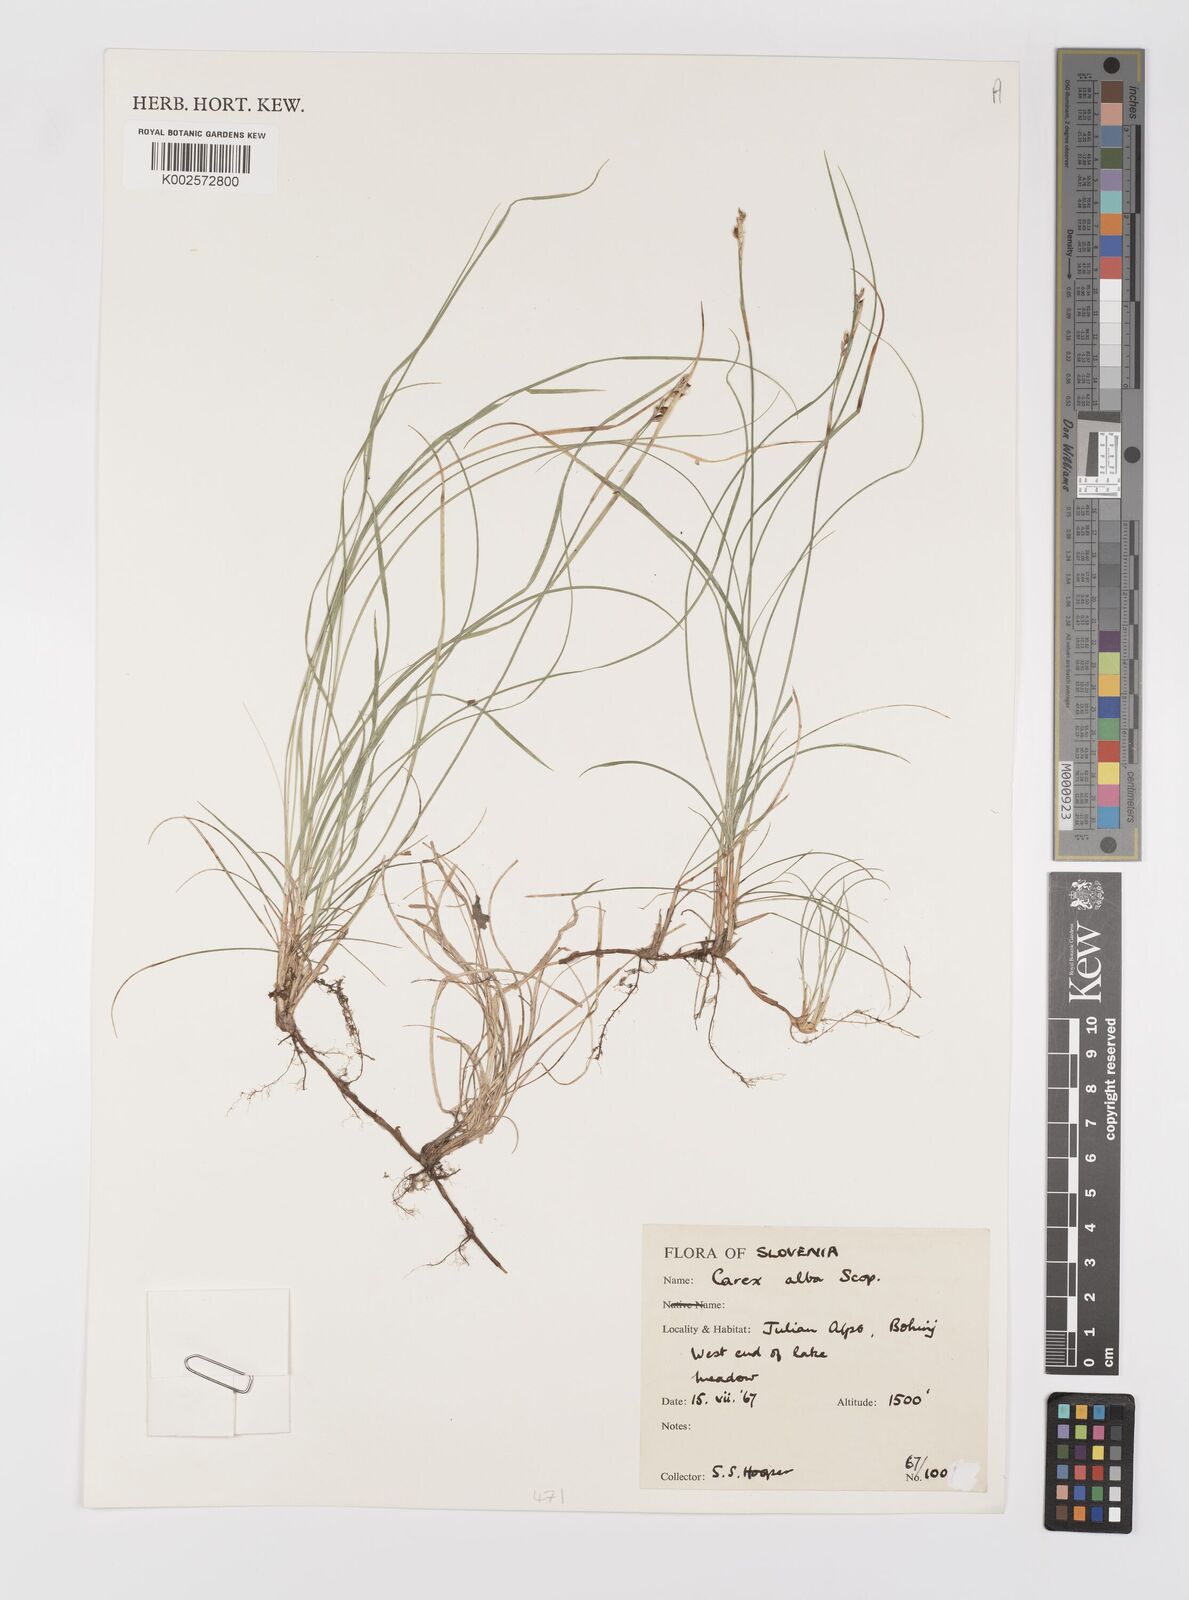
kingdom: Plantae
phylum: Tracheophyta
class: Liliopsida
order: Poales
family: Cyperaceae
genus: Carex
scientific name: Carex alba
